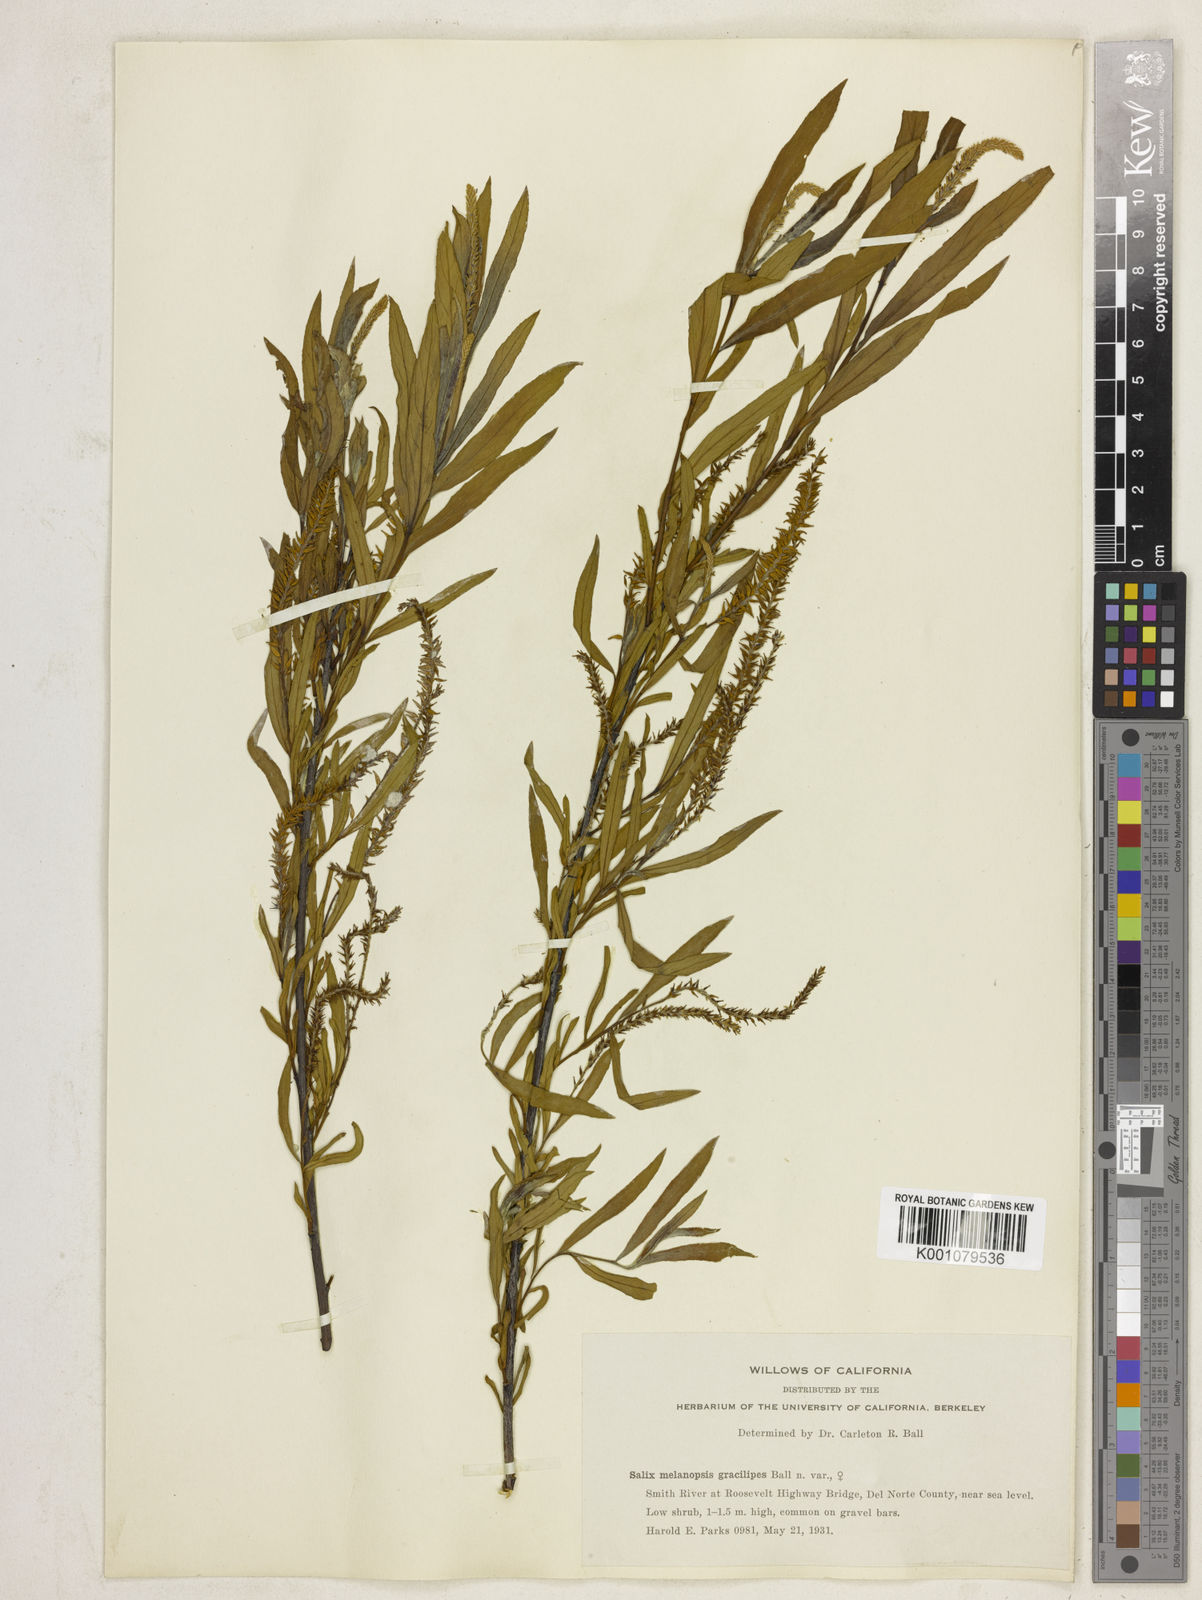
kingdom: Plantae
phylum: Tracheophyta
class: Magnoliopsida
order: Malpighiales
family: Salicaceae
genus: Salix
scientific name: Salix melanopsis
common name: Dusky willow
